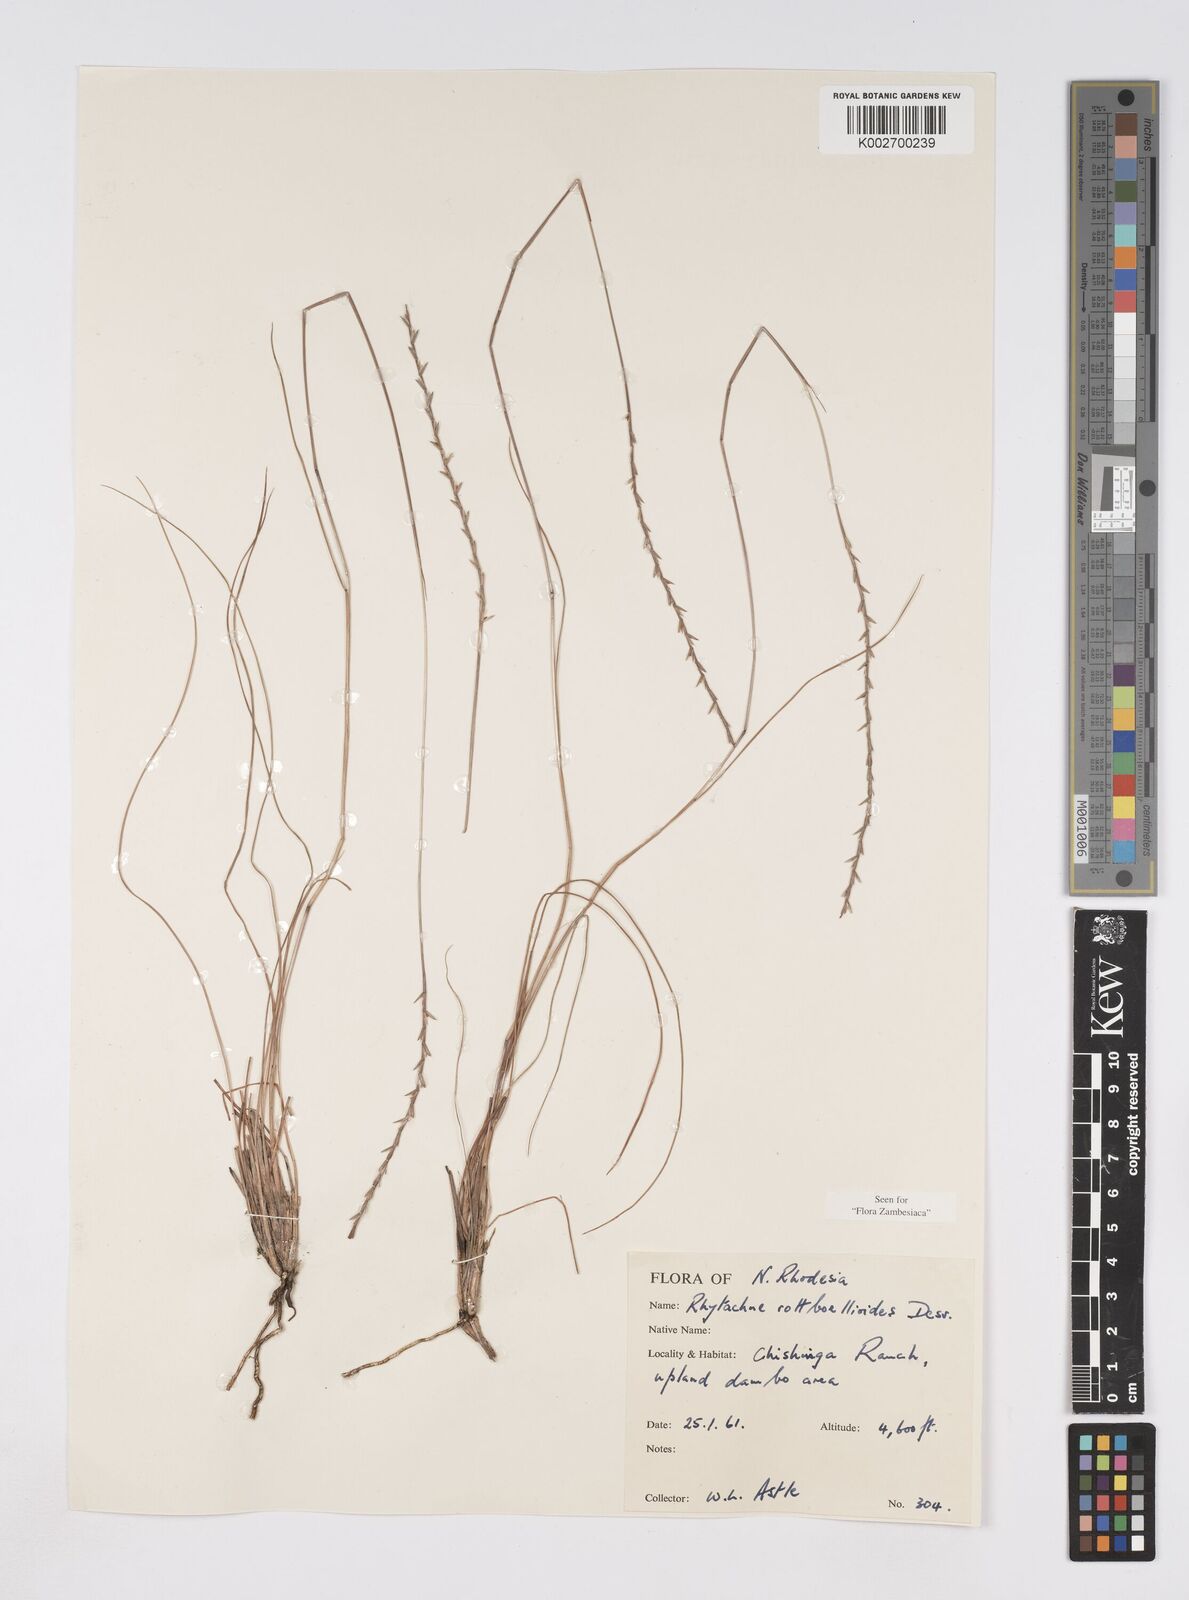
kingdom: Plantae
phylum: Tracheophyta
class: Liliopsida
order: Poales
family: Poaceae
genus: Rhytachne
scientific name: Rhytachne rottboellioides
